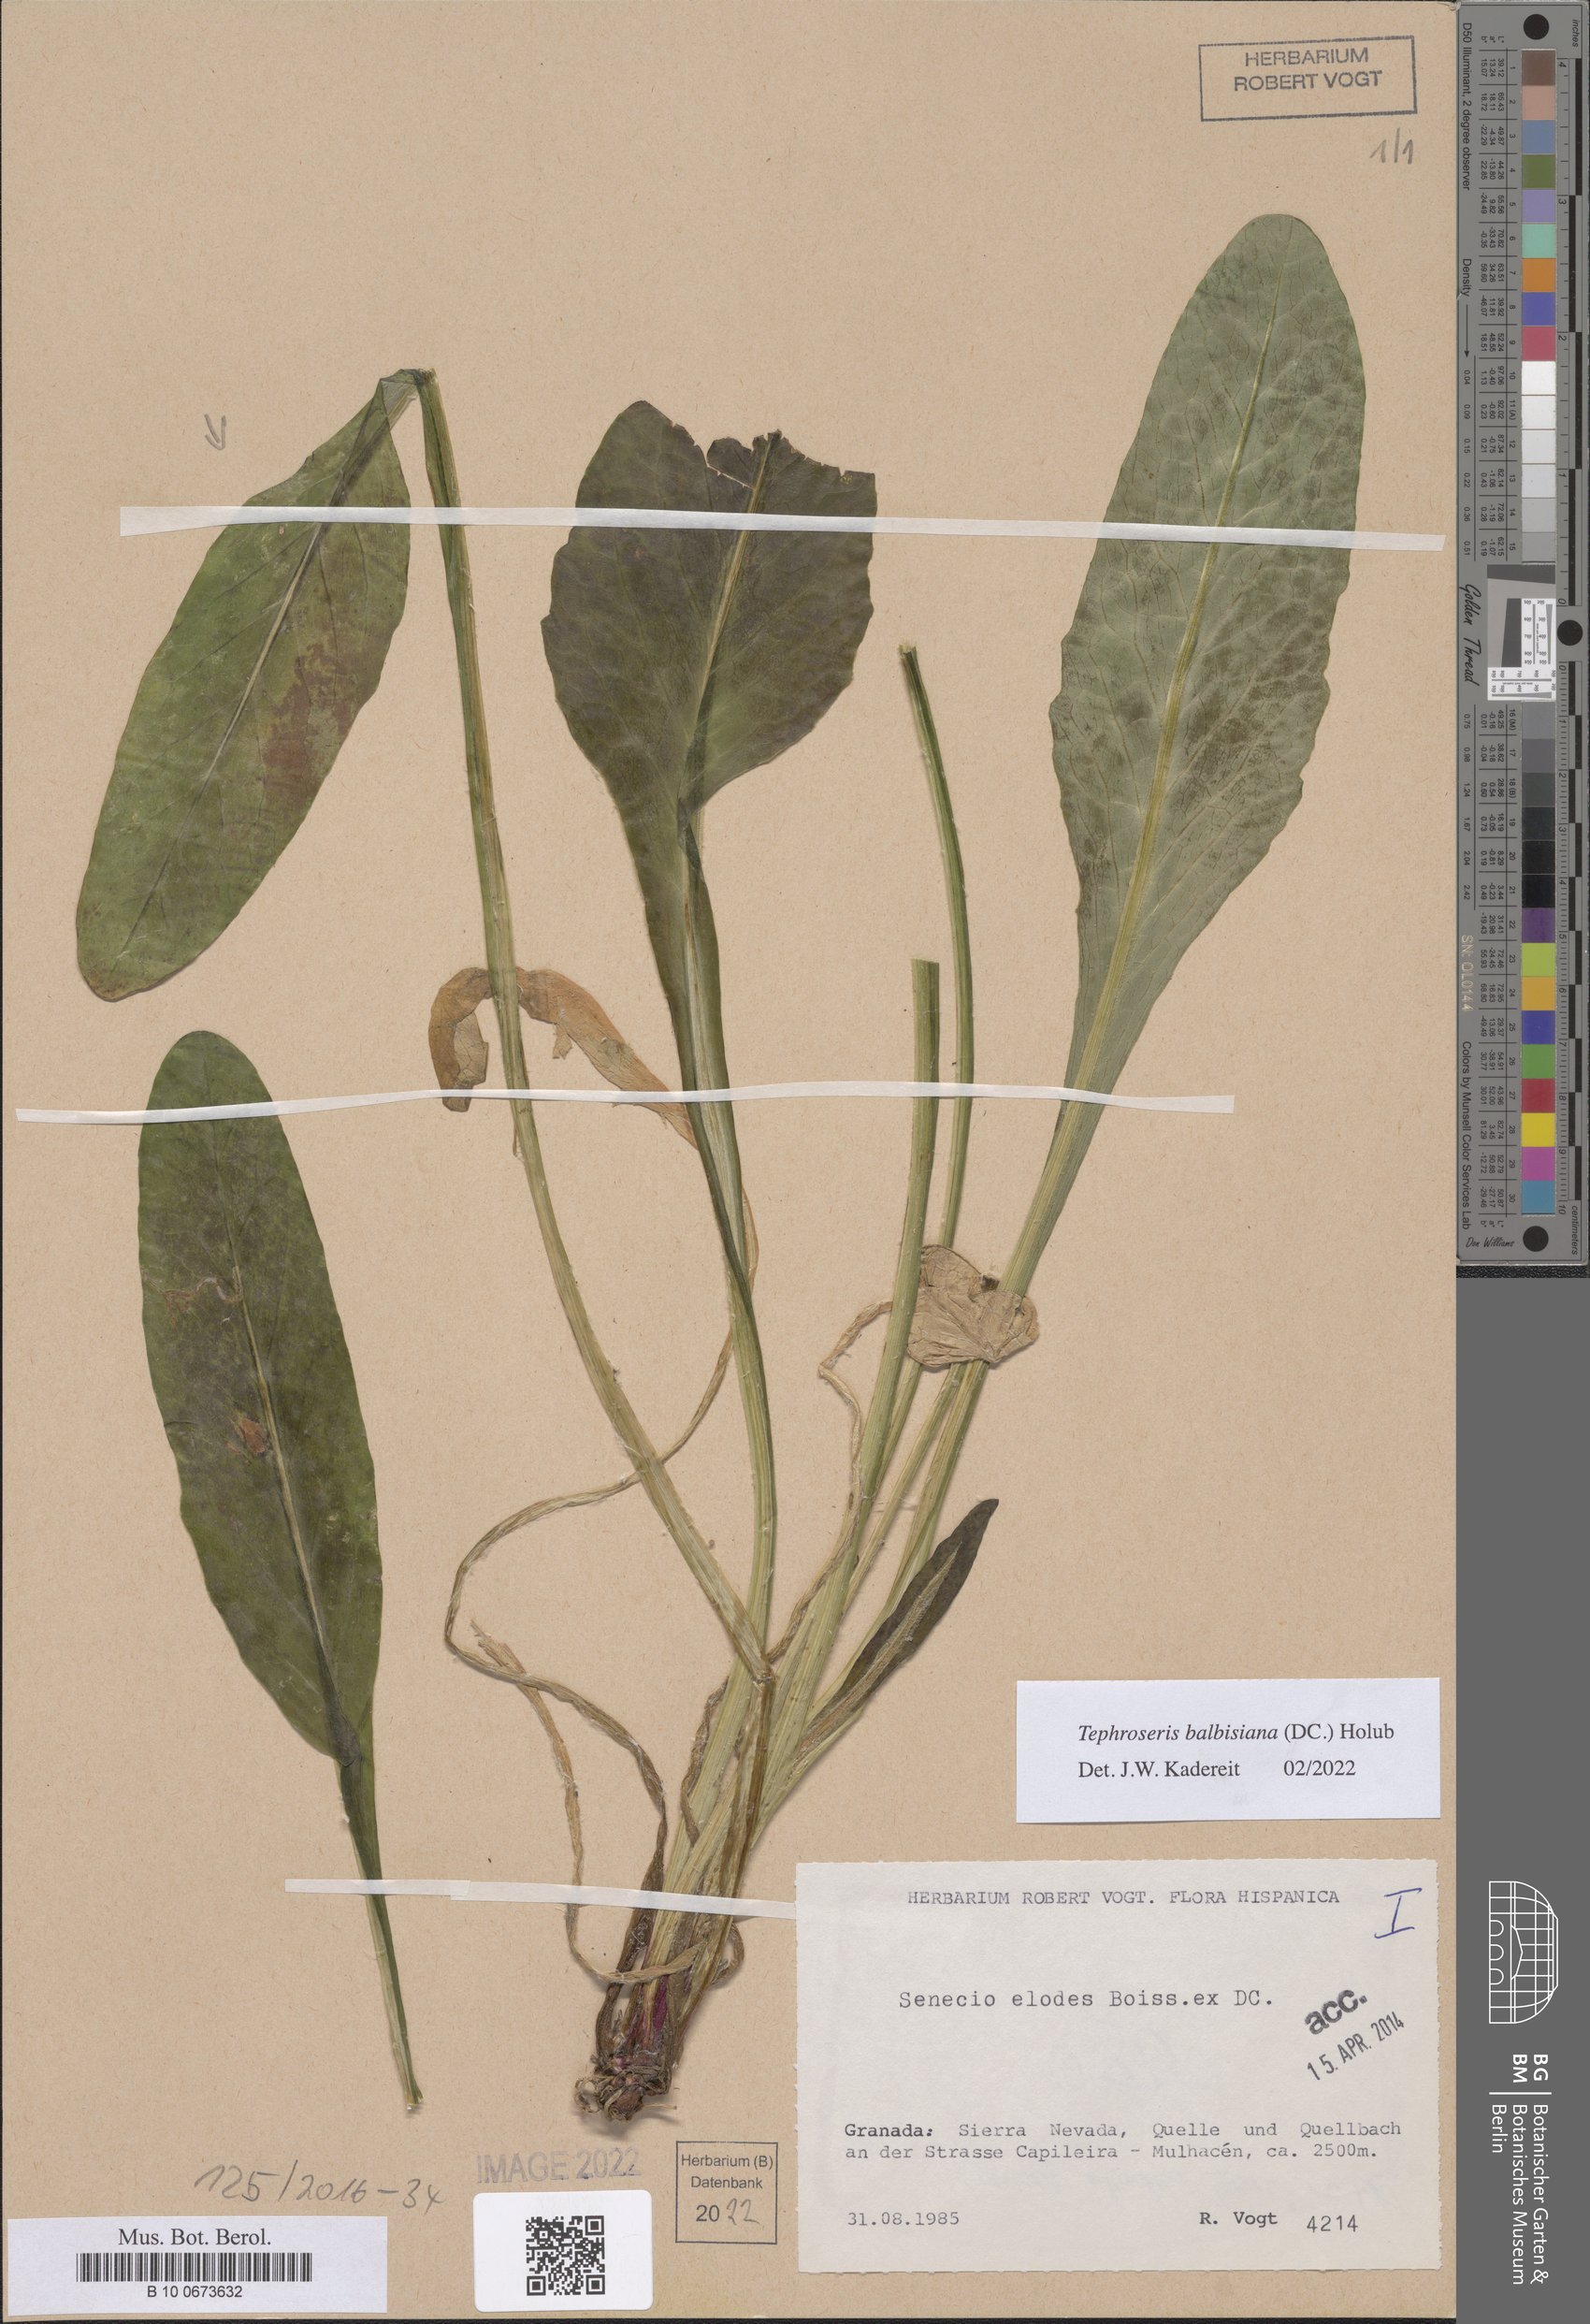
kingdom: Plantae
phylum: Tracheophyta
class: Magnoliopsida
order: Asterales
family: Asteraceae
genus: Tephroseris
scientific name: Tephroseris balbisiana
